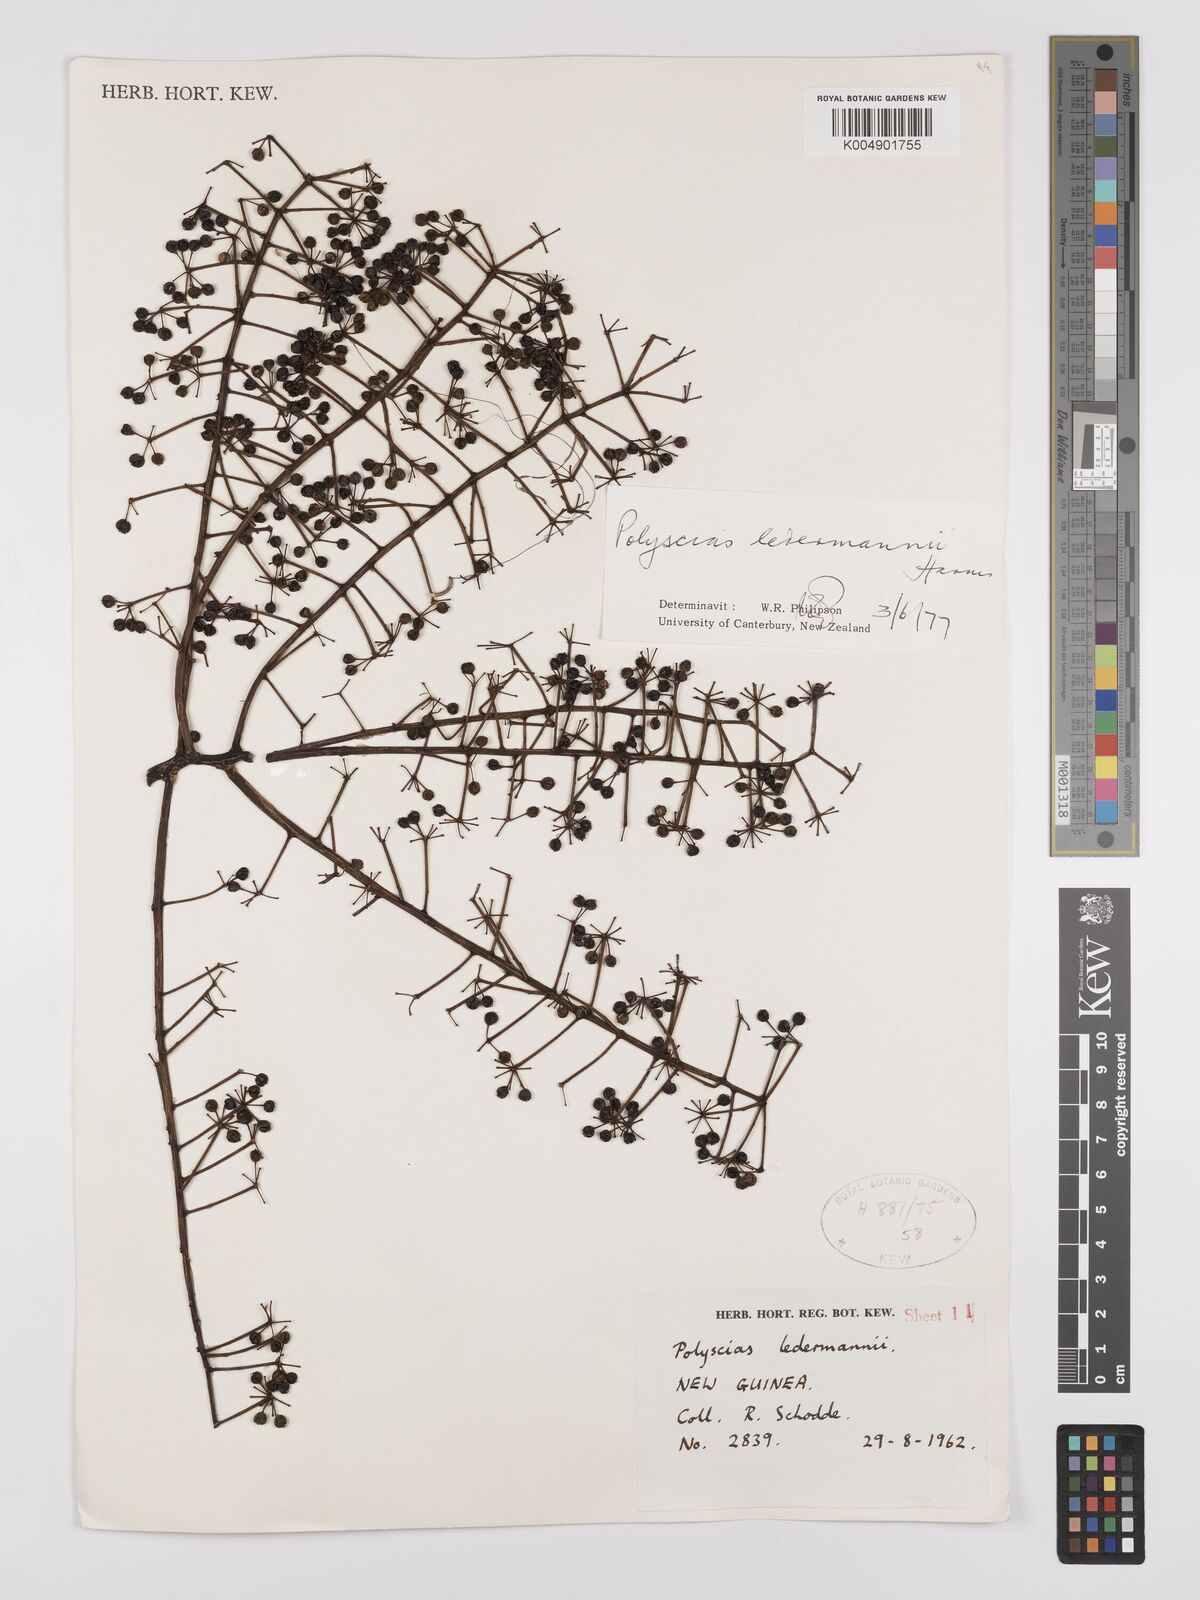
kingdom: Plantae
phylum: Tracheophyta
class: Magnoliopsida
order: Apiales
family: Araliaceae
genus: Polyscias
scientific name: Polyscias ledermannii
